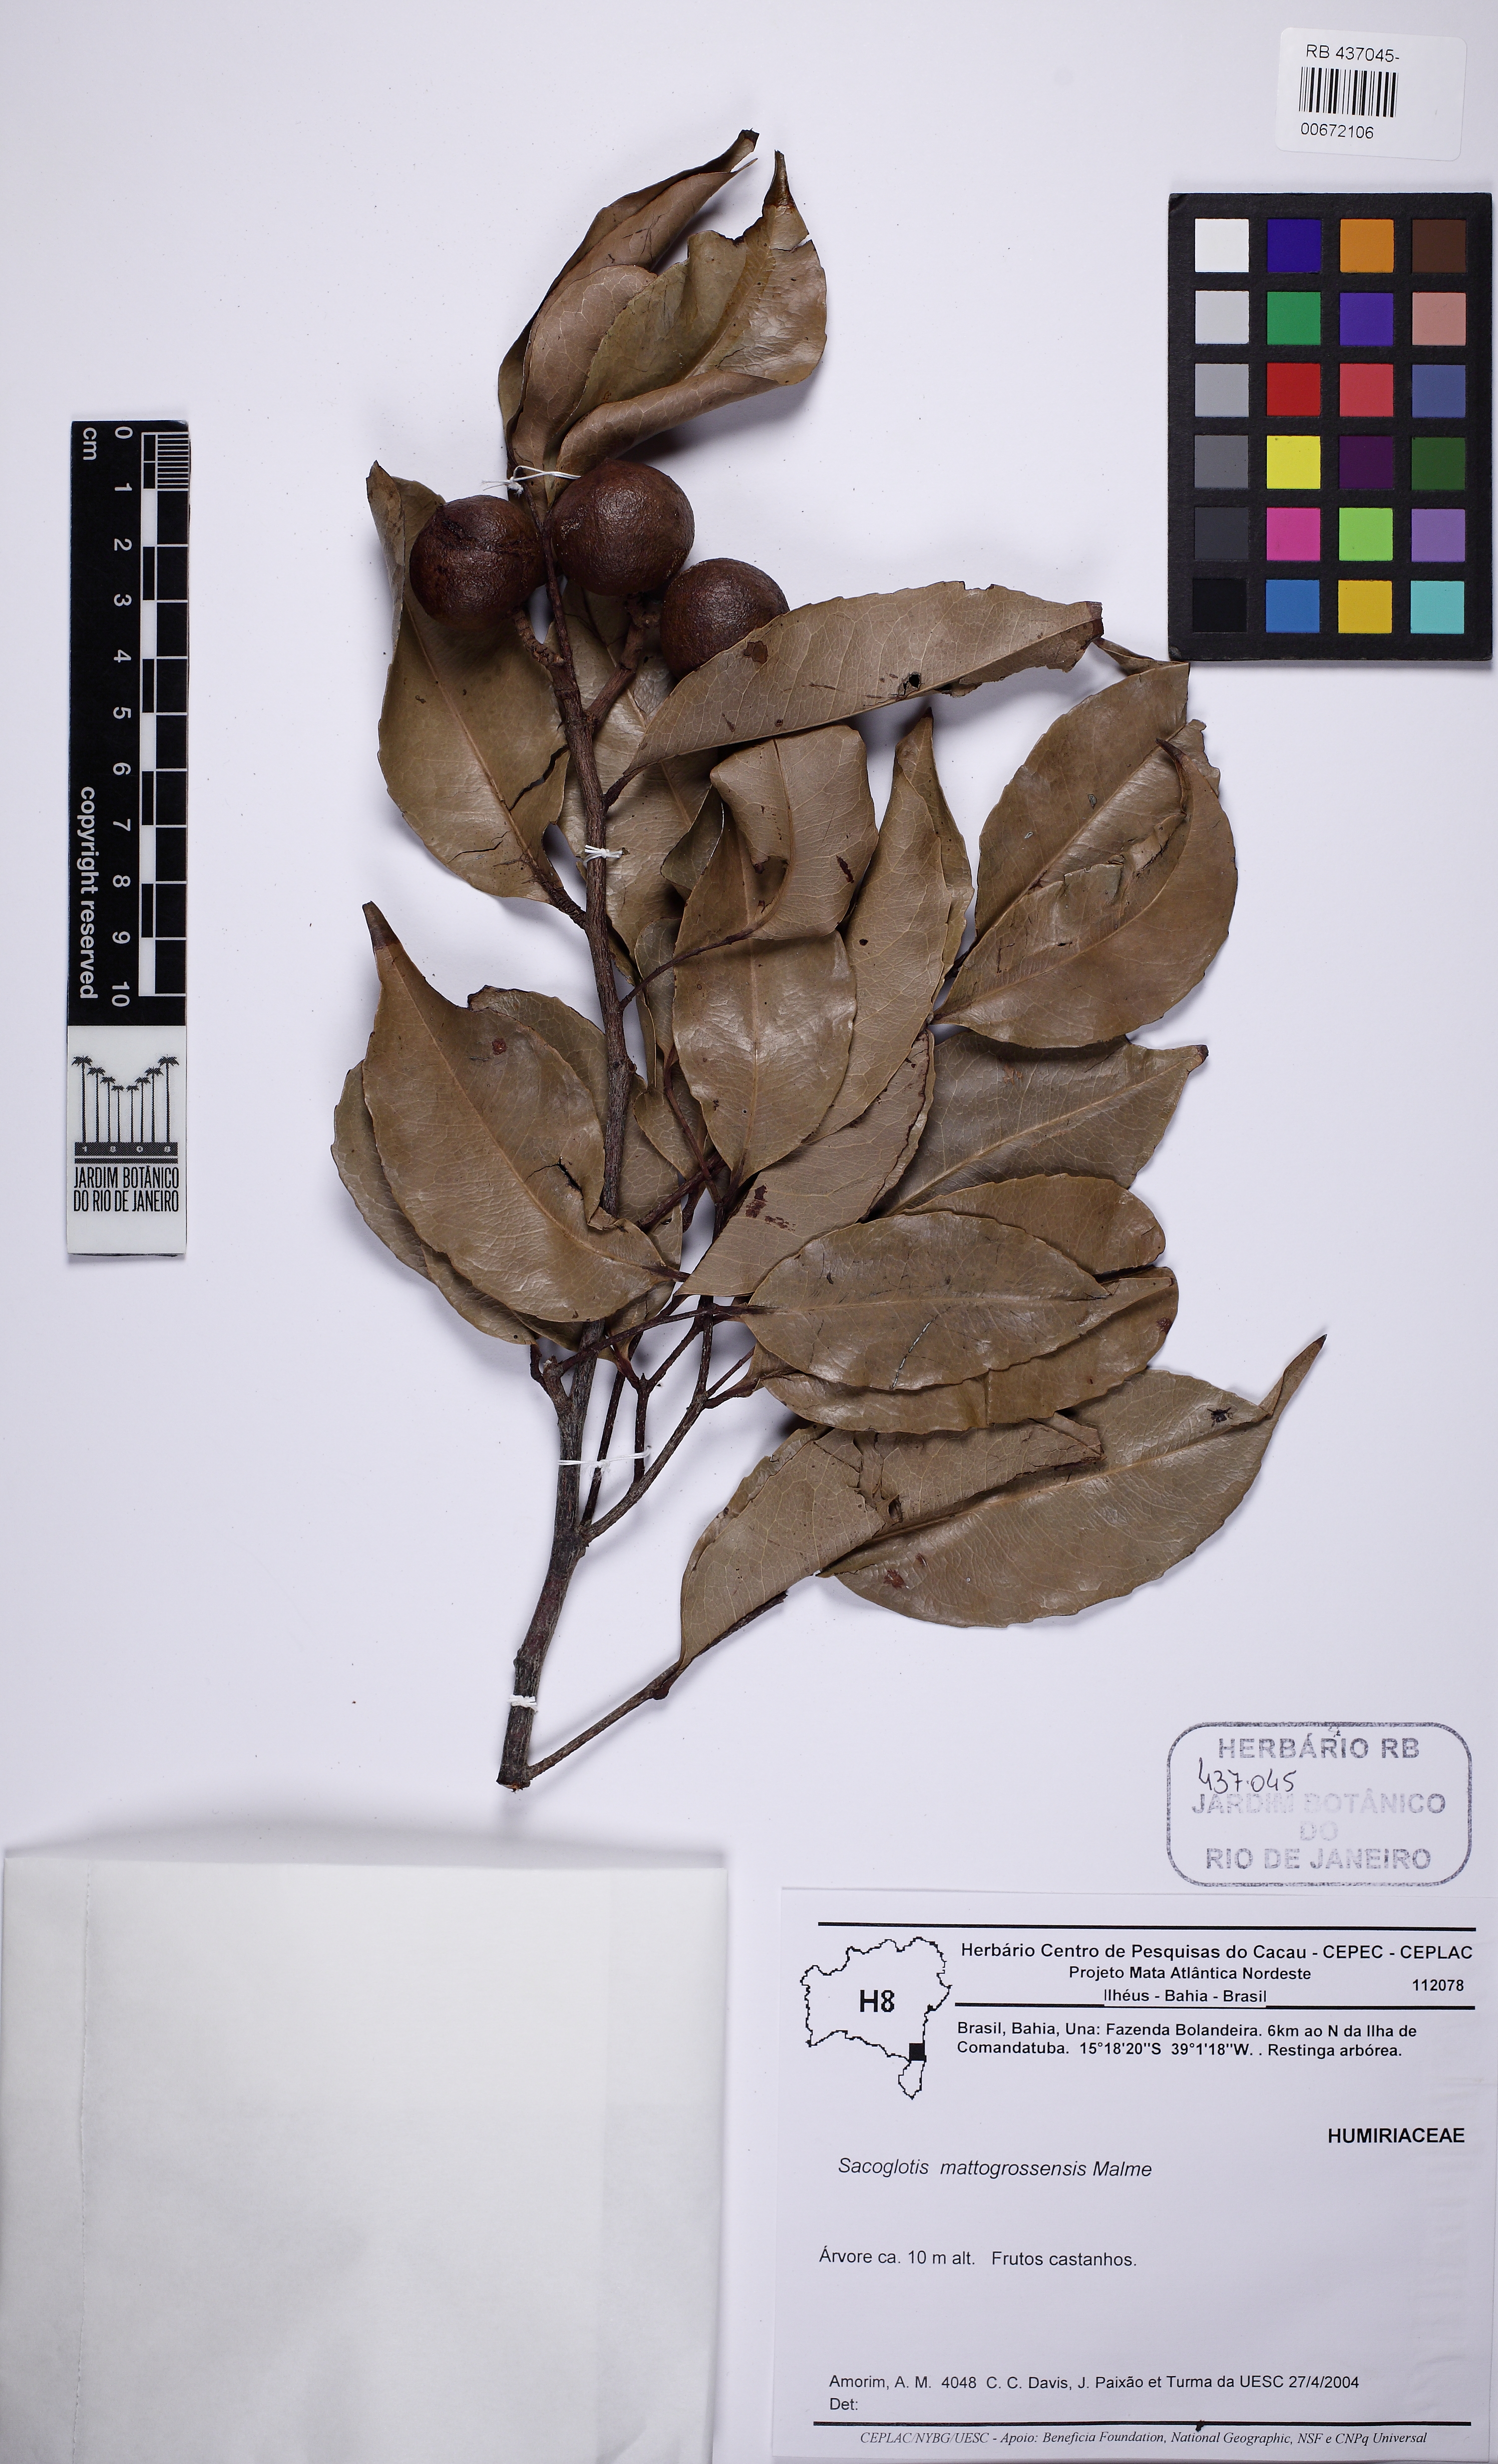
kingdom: Plantae
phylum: Tracheophyta
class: Magnoliopsida
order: Malpighiales
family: Humiriaceae
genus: Sacoglottis
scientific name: Sacoglottis mattogrossensis
